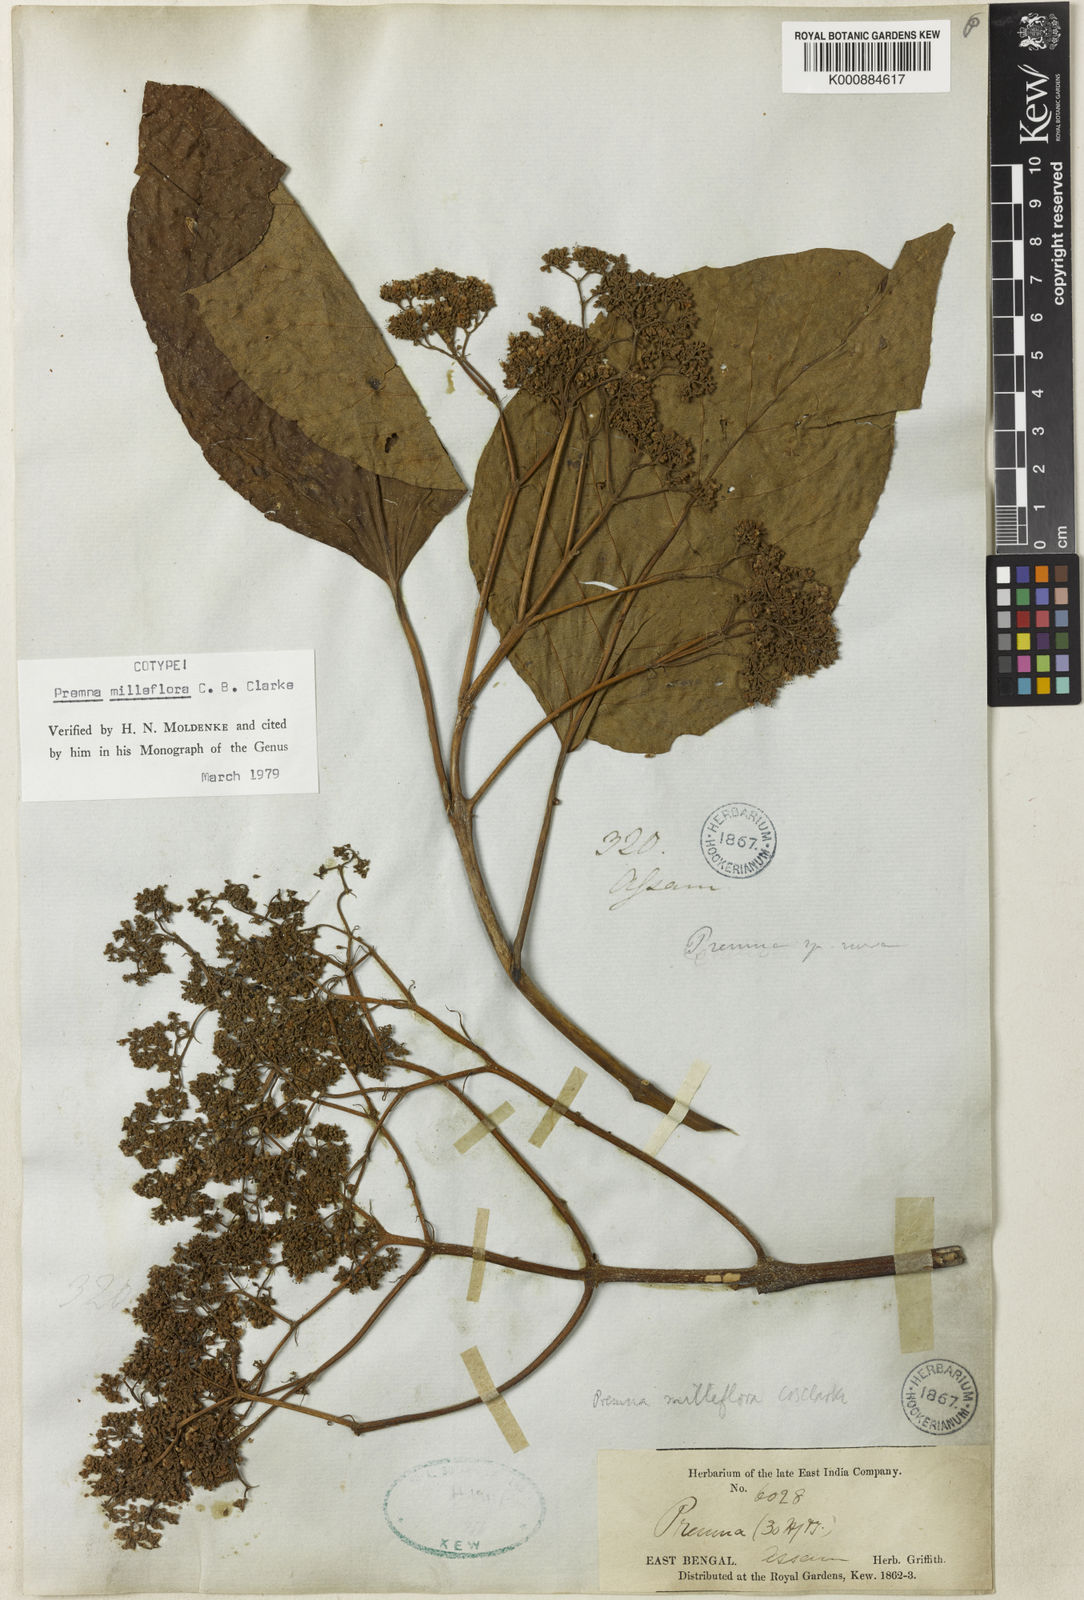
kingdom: Plantae
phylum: Tracheophyta
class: Magnoliopsida
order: Lamiales
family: Lamiaceae
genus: Premna
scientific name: Premna milleflora
